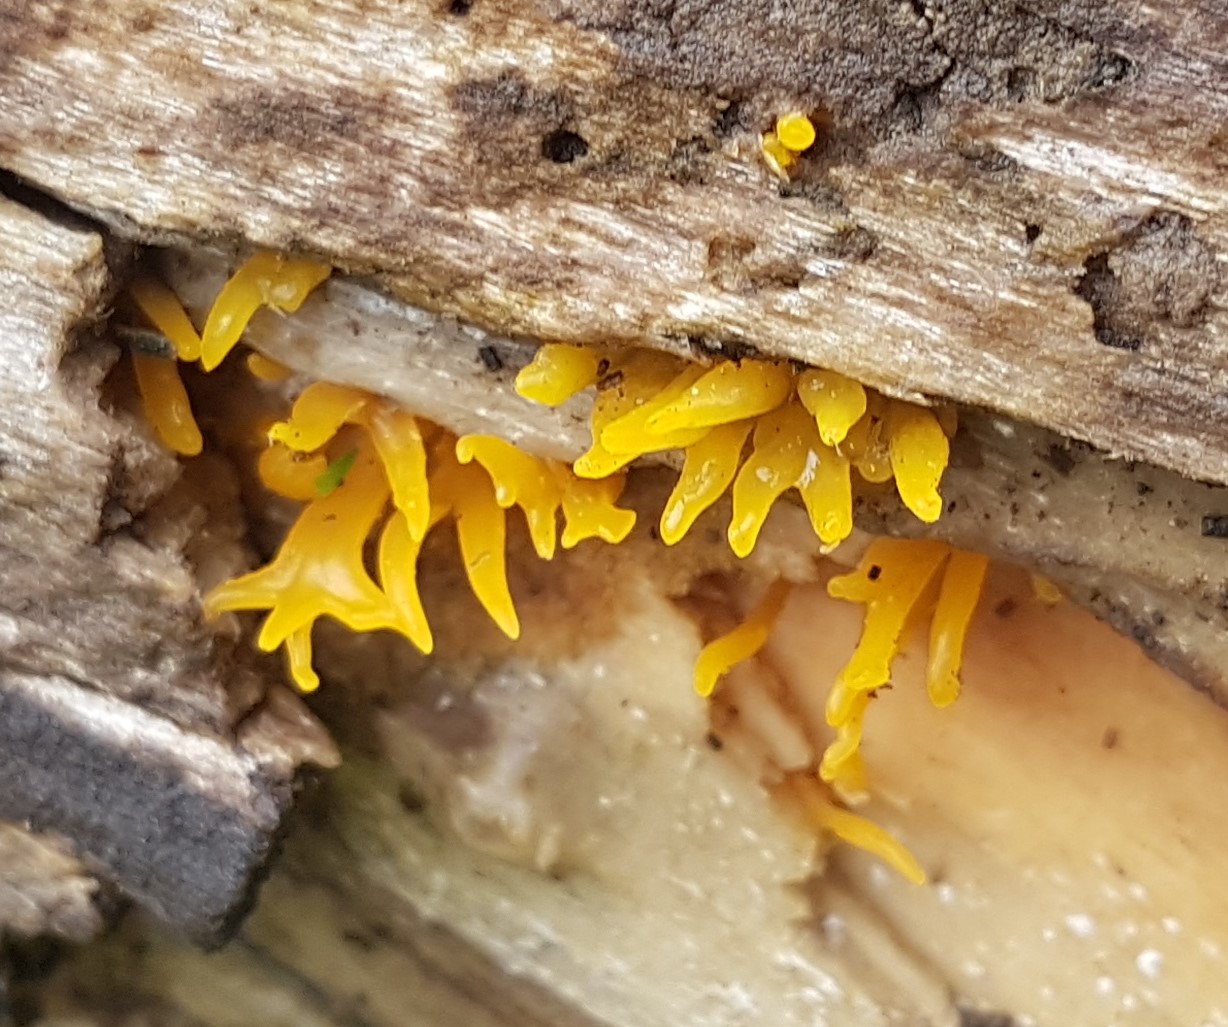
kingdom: Fungi
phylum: Basidiomycota
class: Dacrymycetes
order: Dacrymycetales
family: Dacrymycetaceae
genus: Calocera
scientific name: Calocera cornea
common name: liden guldgaffel
